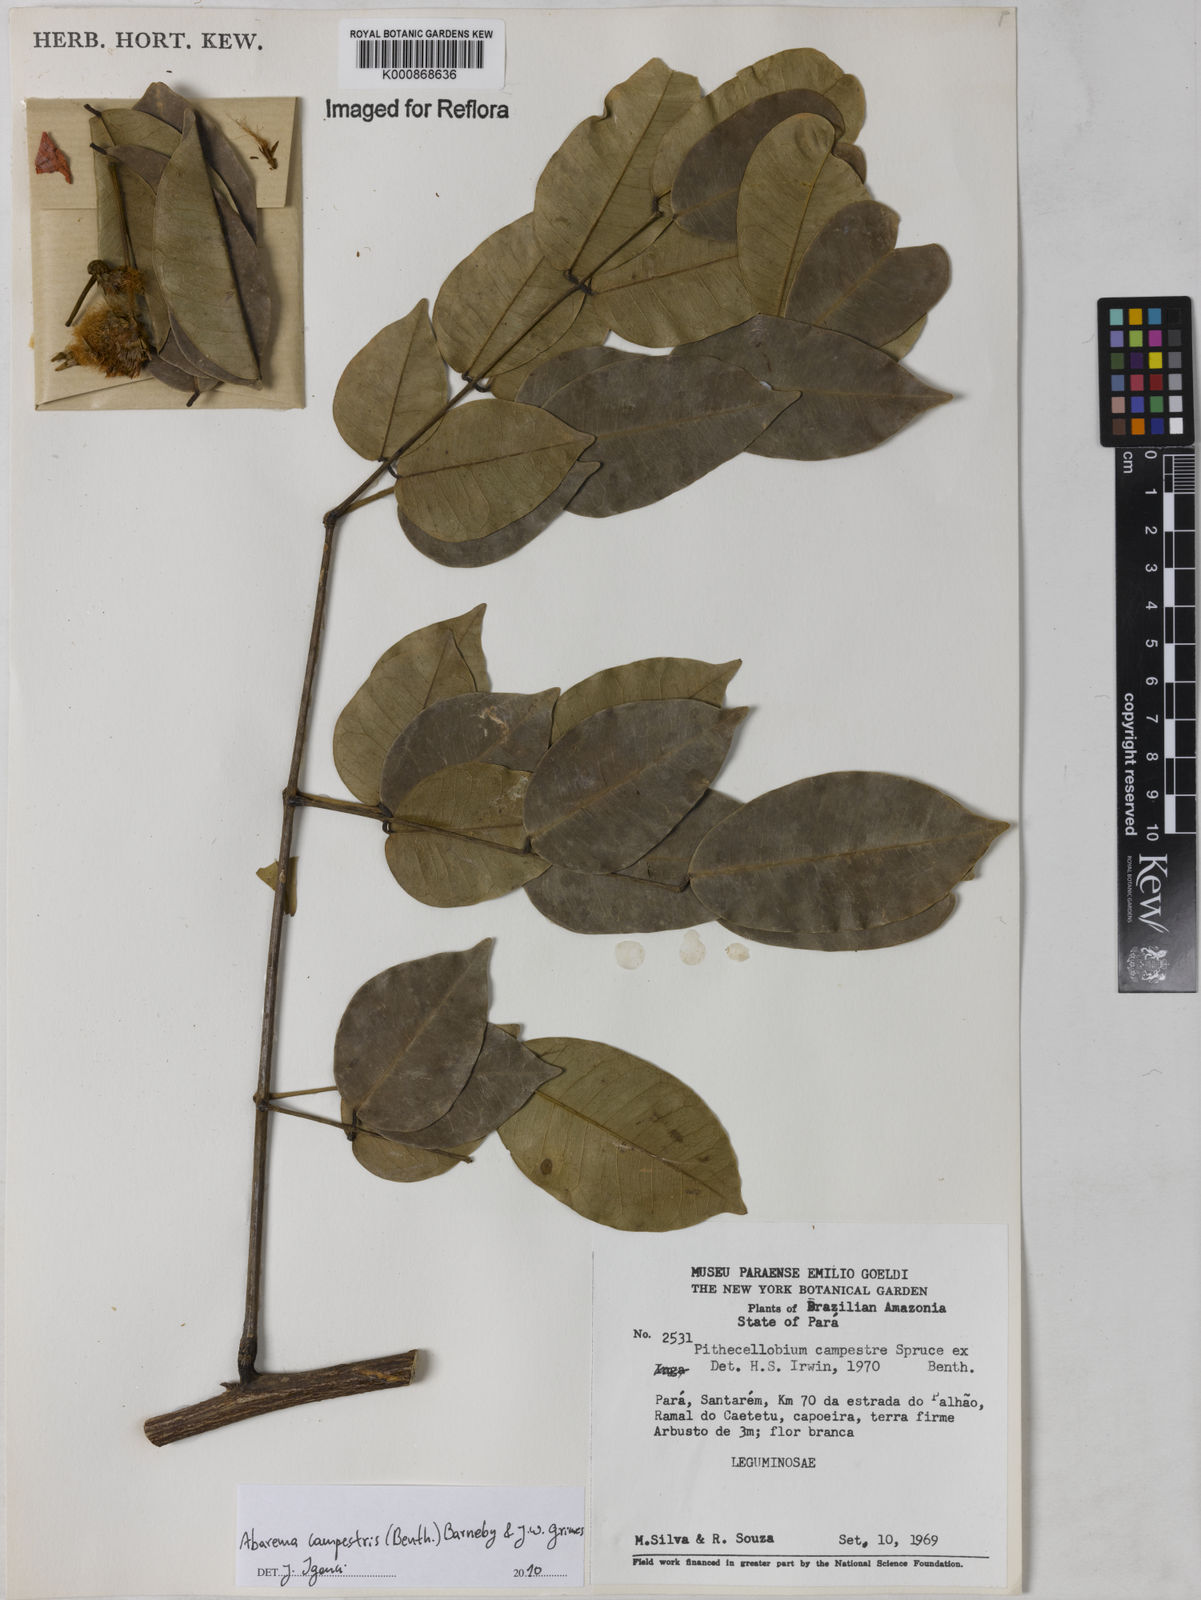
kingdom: Plantae
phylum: Tracheophyta
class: Magnoliopsida
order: Fabales
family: Fabaceae
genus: Jupunba
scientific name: Jupunba campestris
